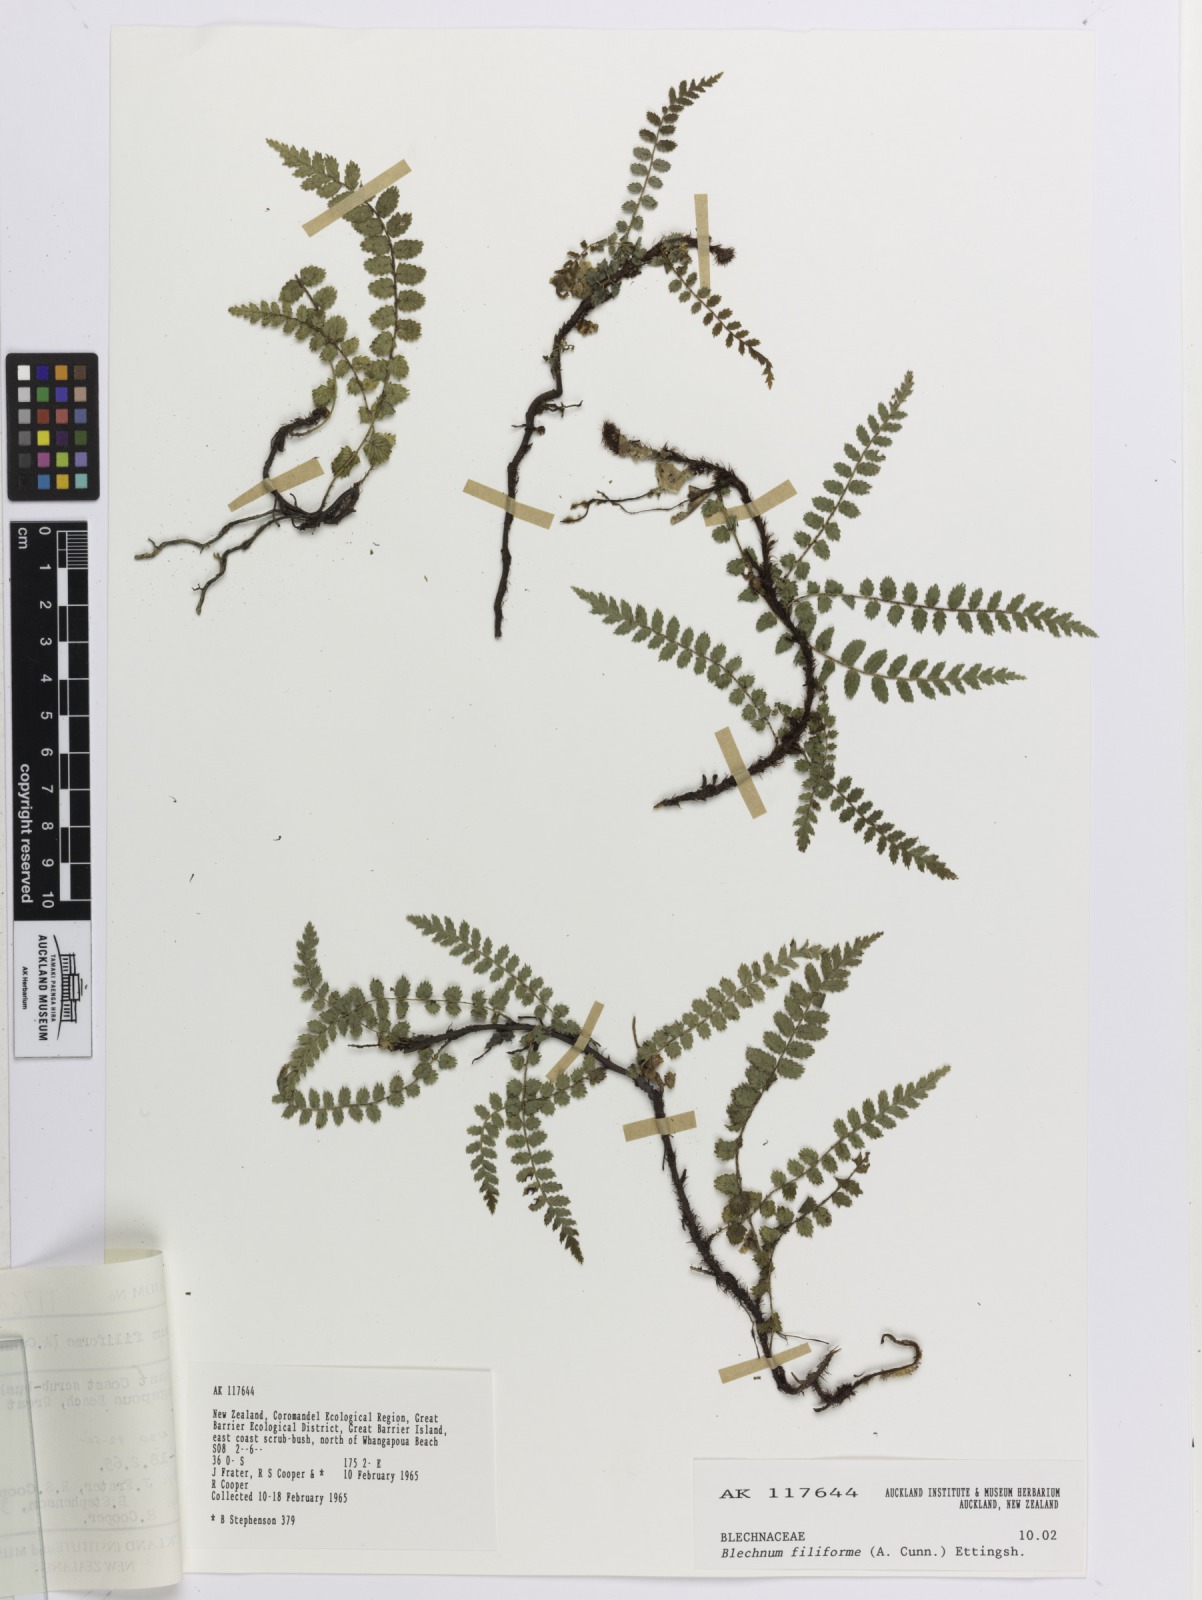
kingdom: Plantae
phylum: Tracheophyta
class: Polypodiopsida
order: Polypodiales
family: Blechnaceae
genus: Icarus
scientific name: Icarus filiformis
